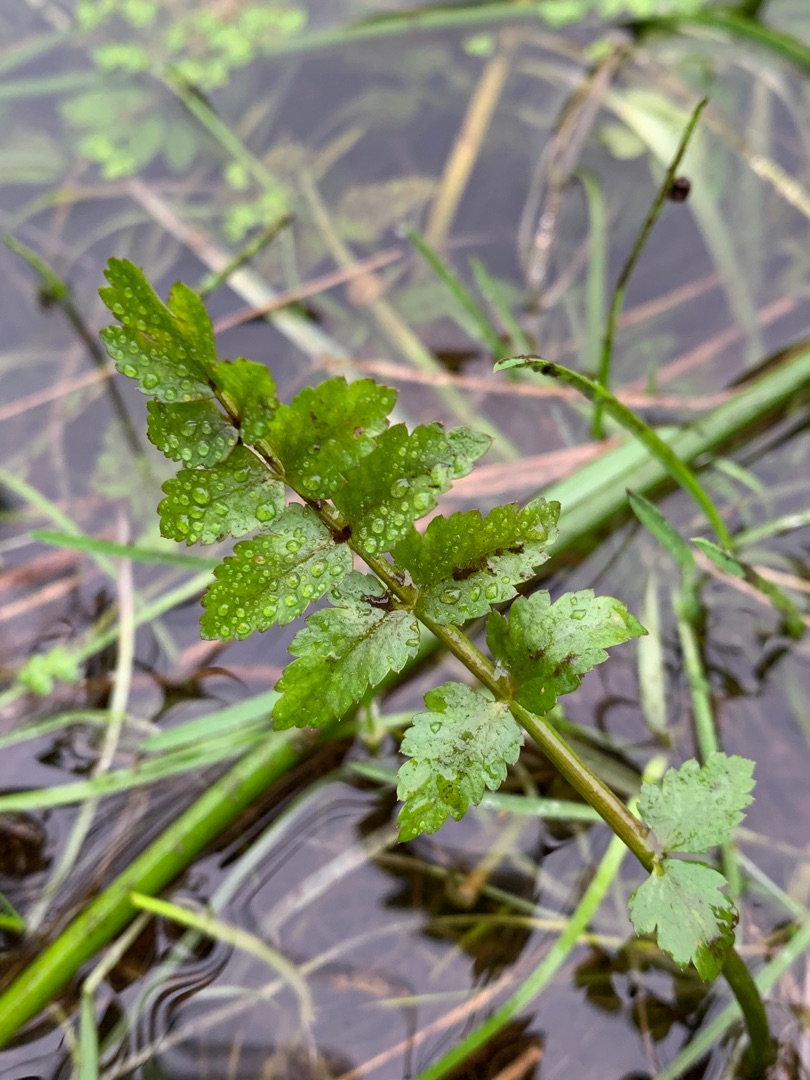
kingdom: Plantae
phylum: Tracheophyta
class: Magnoliopsida
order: Apiales
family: Apiaceae
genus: Berula
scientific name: Berula erecta
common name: Sideskærm
